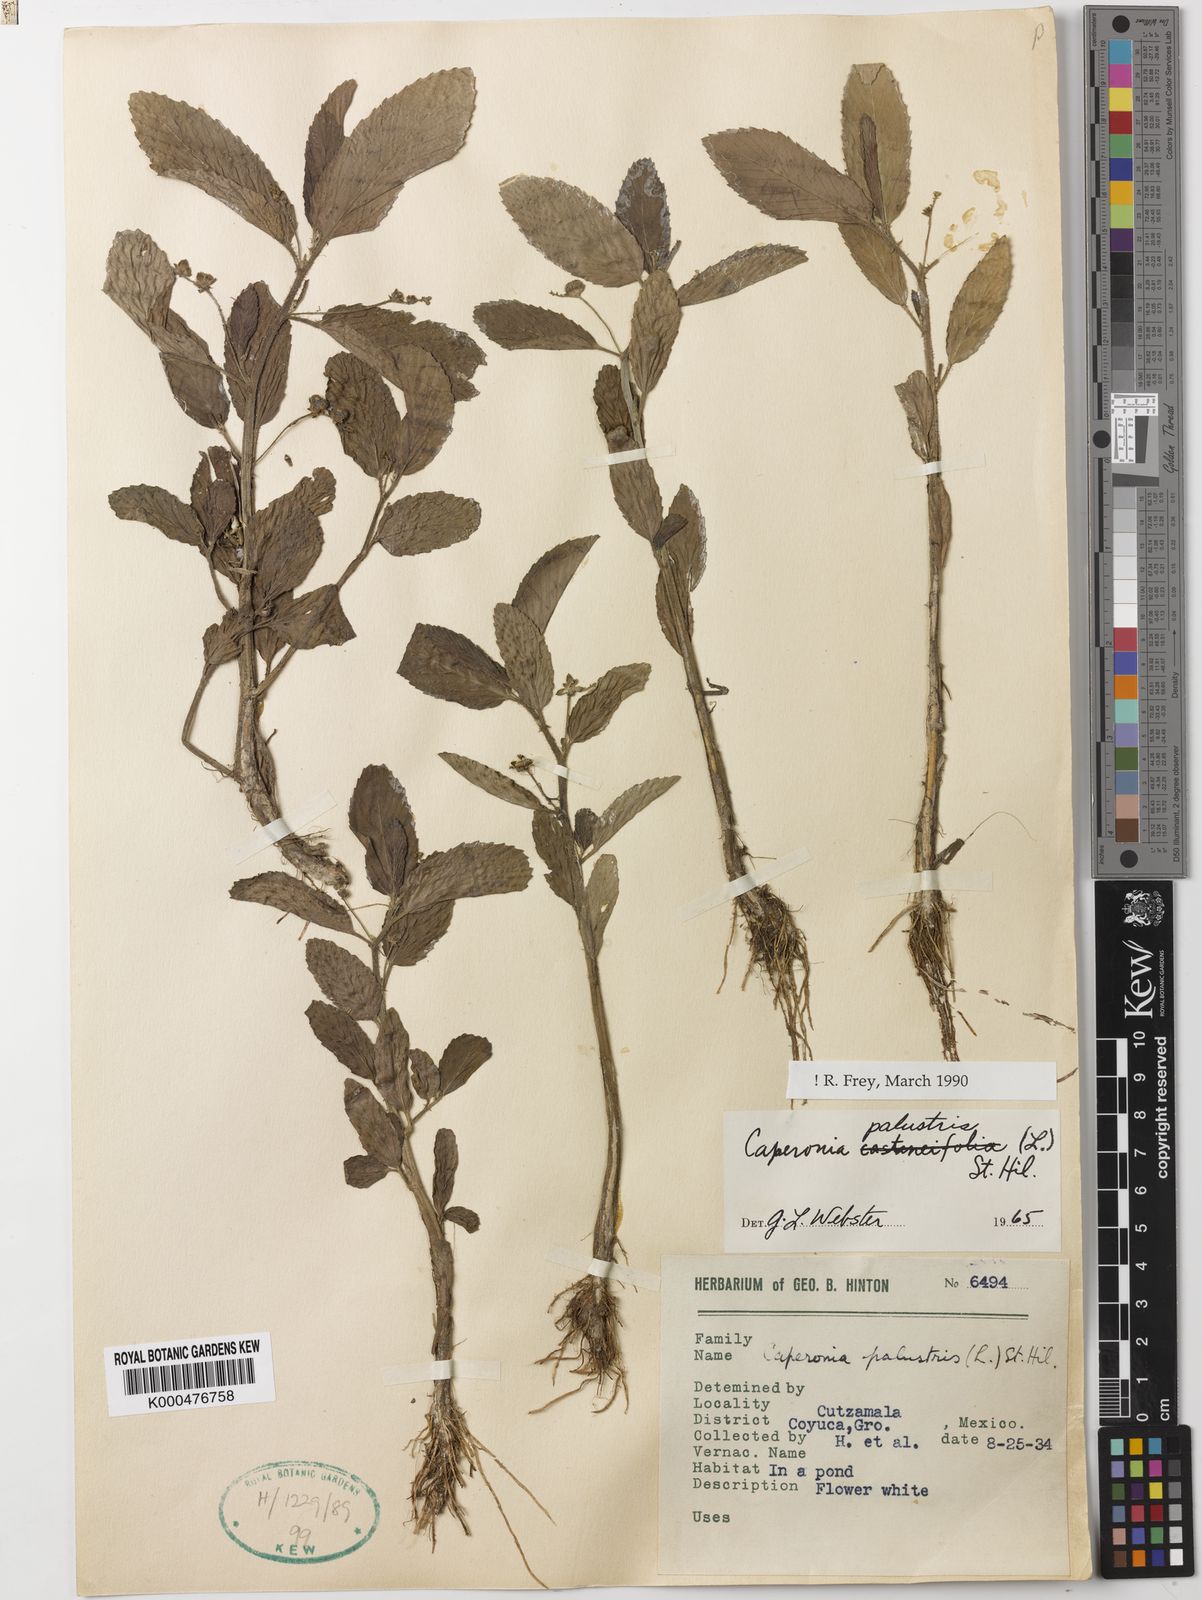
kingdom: Plantae
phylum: Tracheophyta
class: Magnoliopsida
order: Malpighiales
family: Euphorbiaceae
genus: Caperonia
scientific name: Caperonia palustris
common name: Sacatrapo
